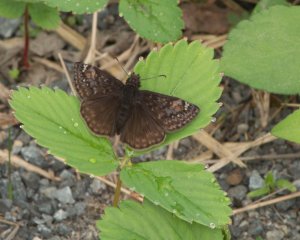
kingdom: Animalia
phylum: Arthropoda
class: Insecta
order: Lepidoptera
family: Hesperiidae
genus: Gesta
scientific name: Gesta
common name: Juvenal's Duskywing
